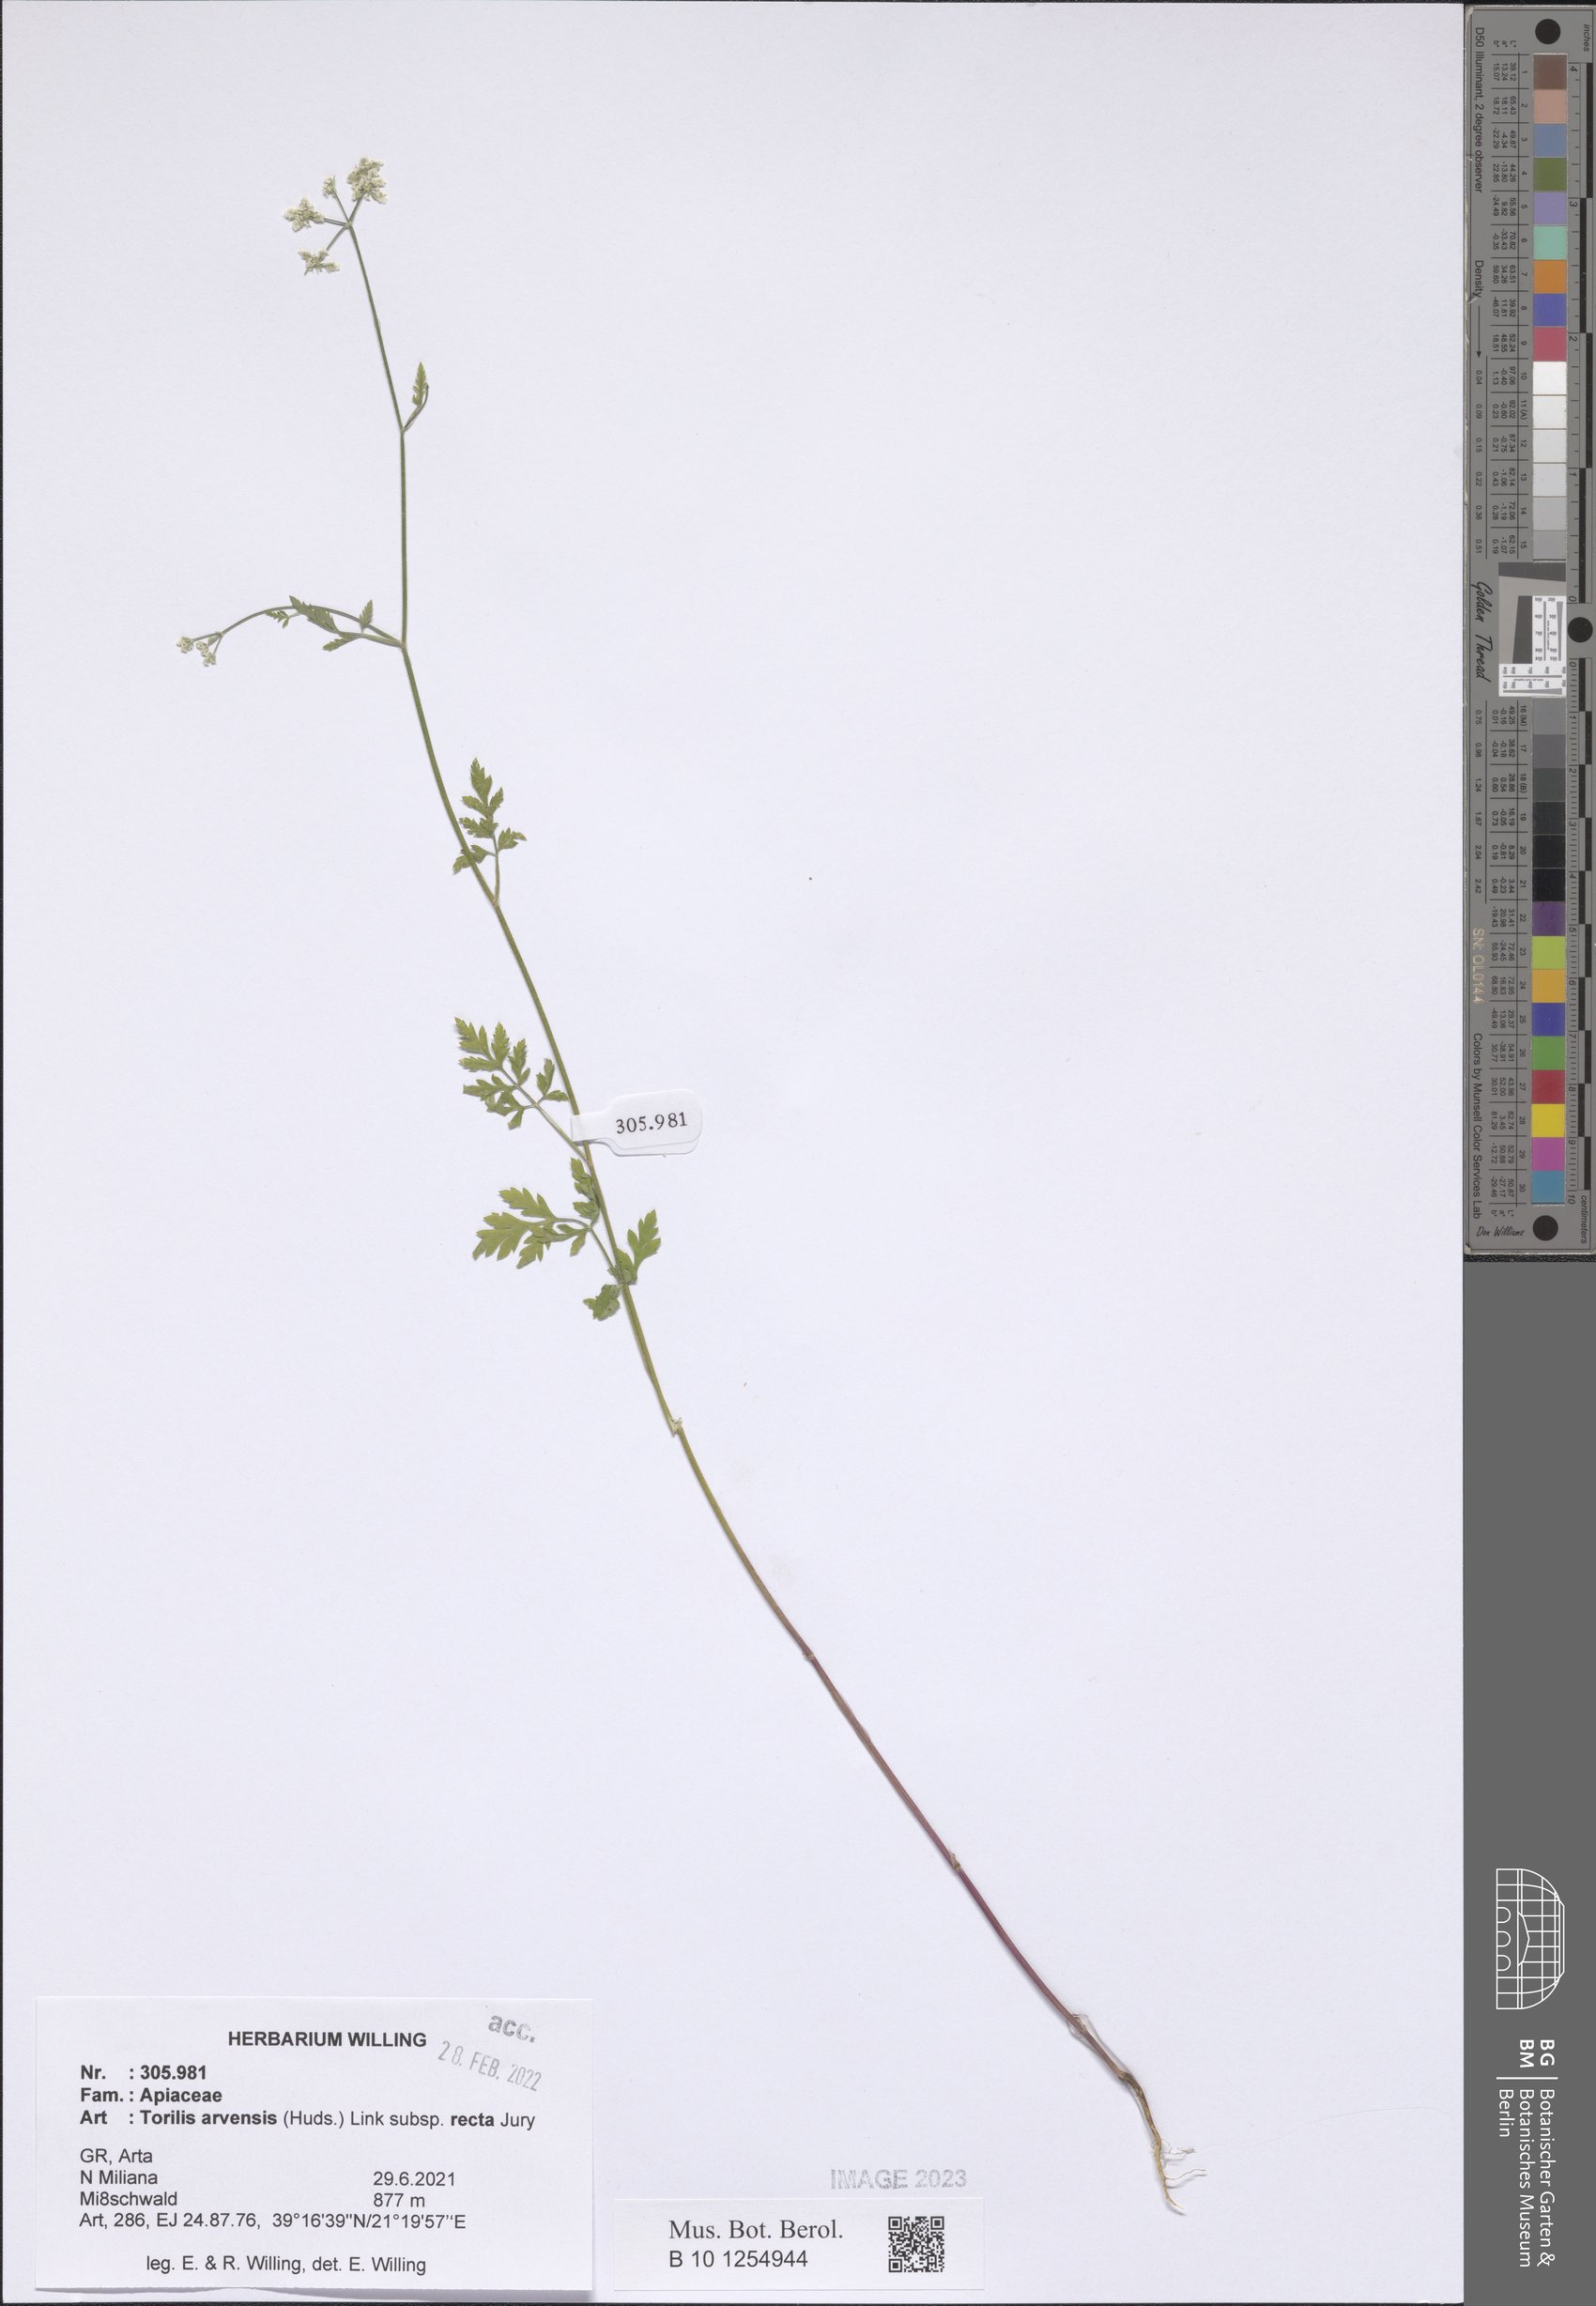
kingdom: Plantae
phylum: Tracheophyta
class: Magnoliopsida
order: Apiales
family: Apiaceae
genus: Torilis
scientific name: Torilis arvensis
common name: Spreading hedge-parsley
